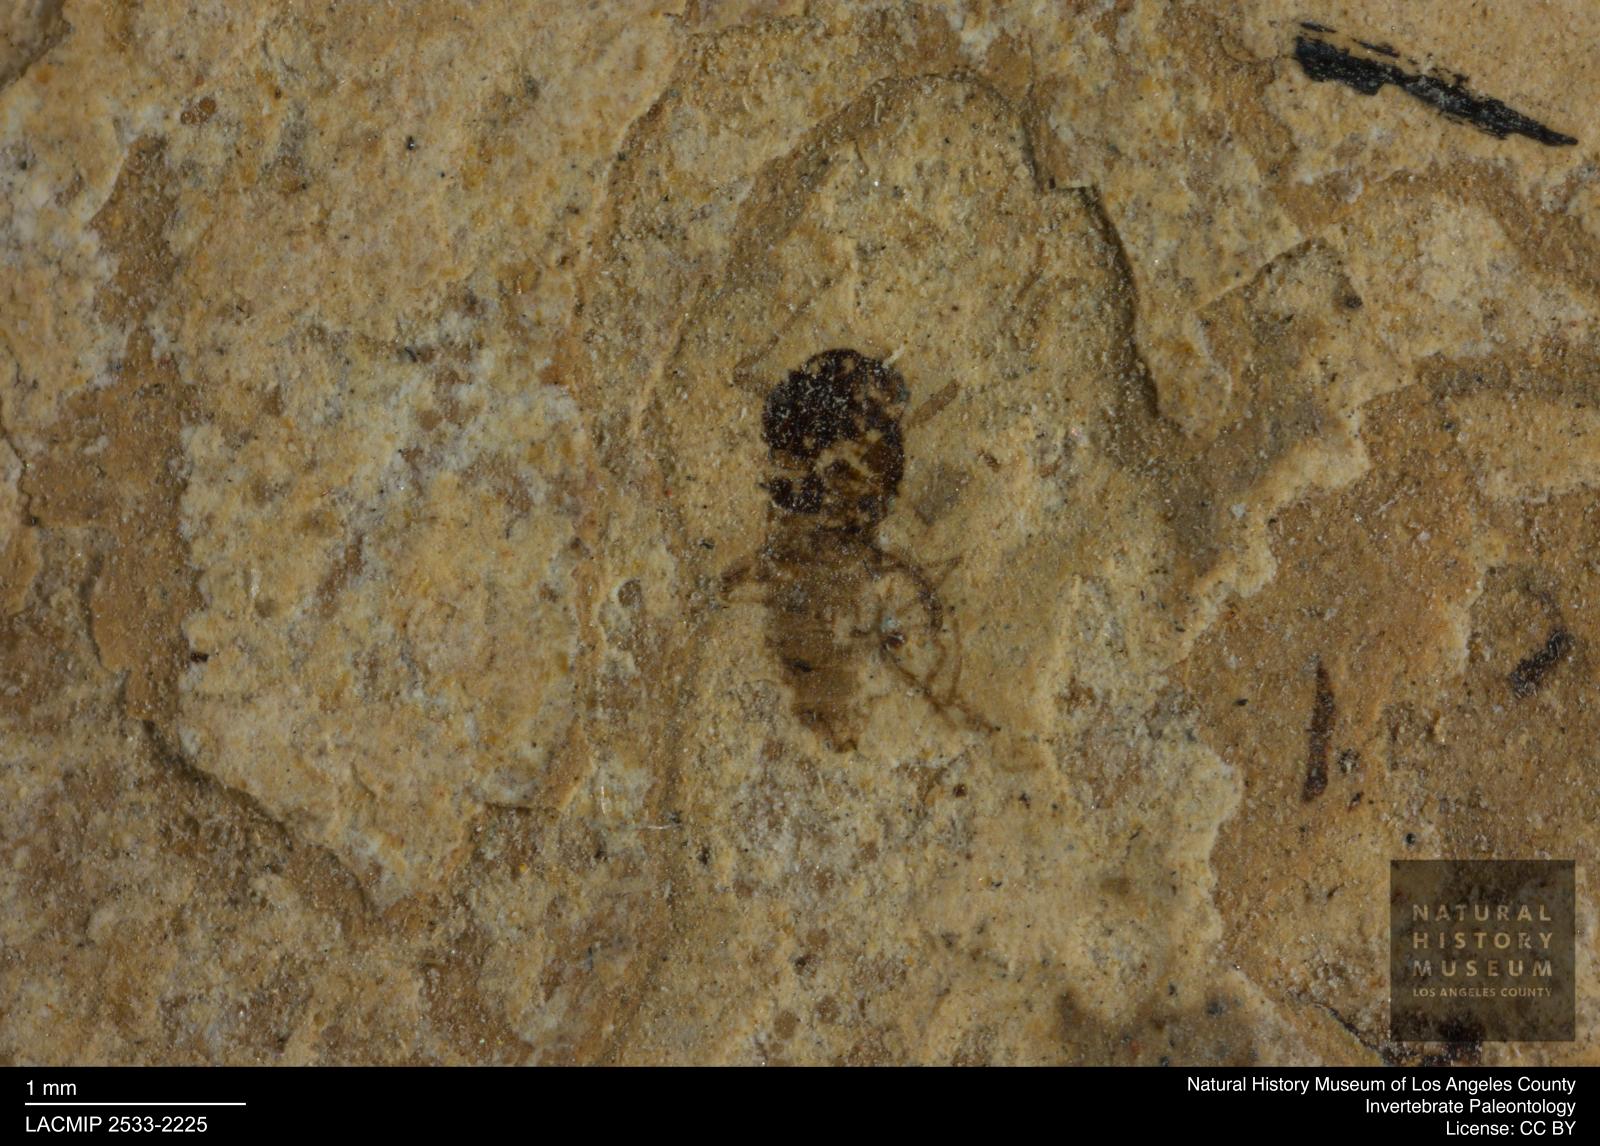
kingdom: Animalia
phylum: Arthropoda
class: Insecta
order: Diptera
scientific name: Diptera
